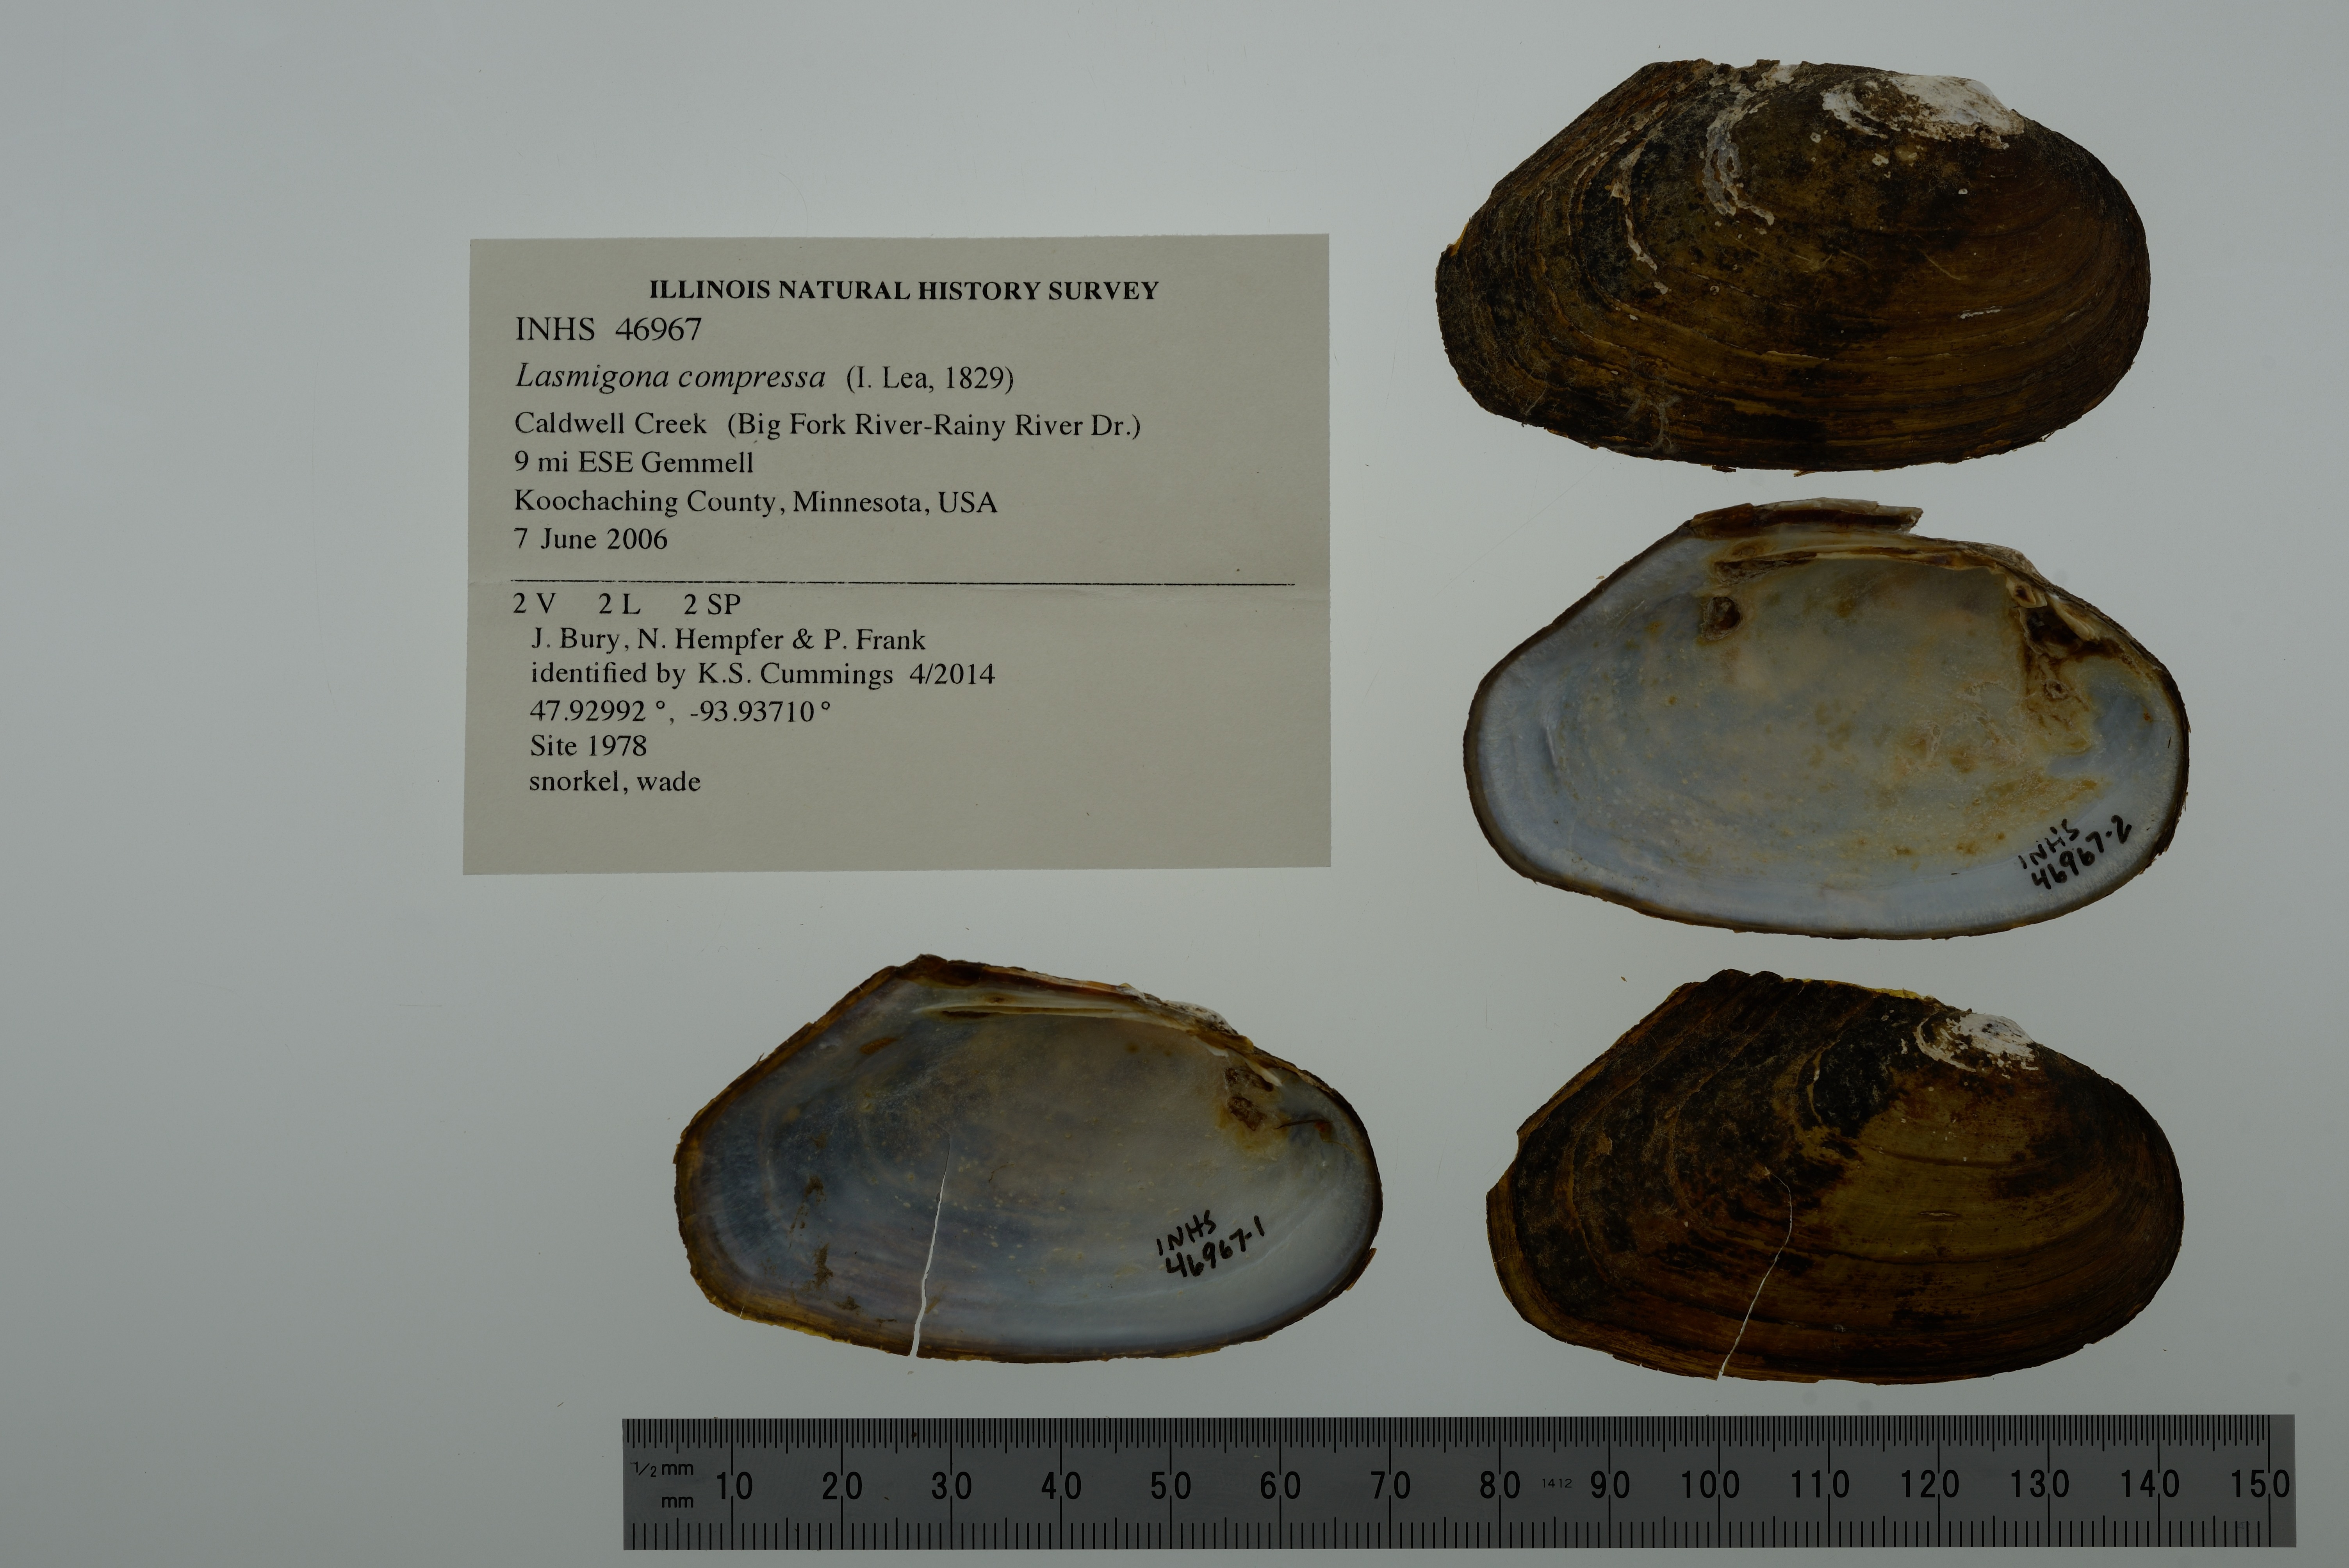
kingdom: Animalia
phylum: Mollusca
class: Bivalvia
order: Unionida
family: Unionidae
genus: Lasmigona
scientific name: Lasmigona compressa
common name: Creek heelsplitter
